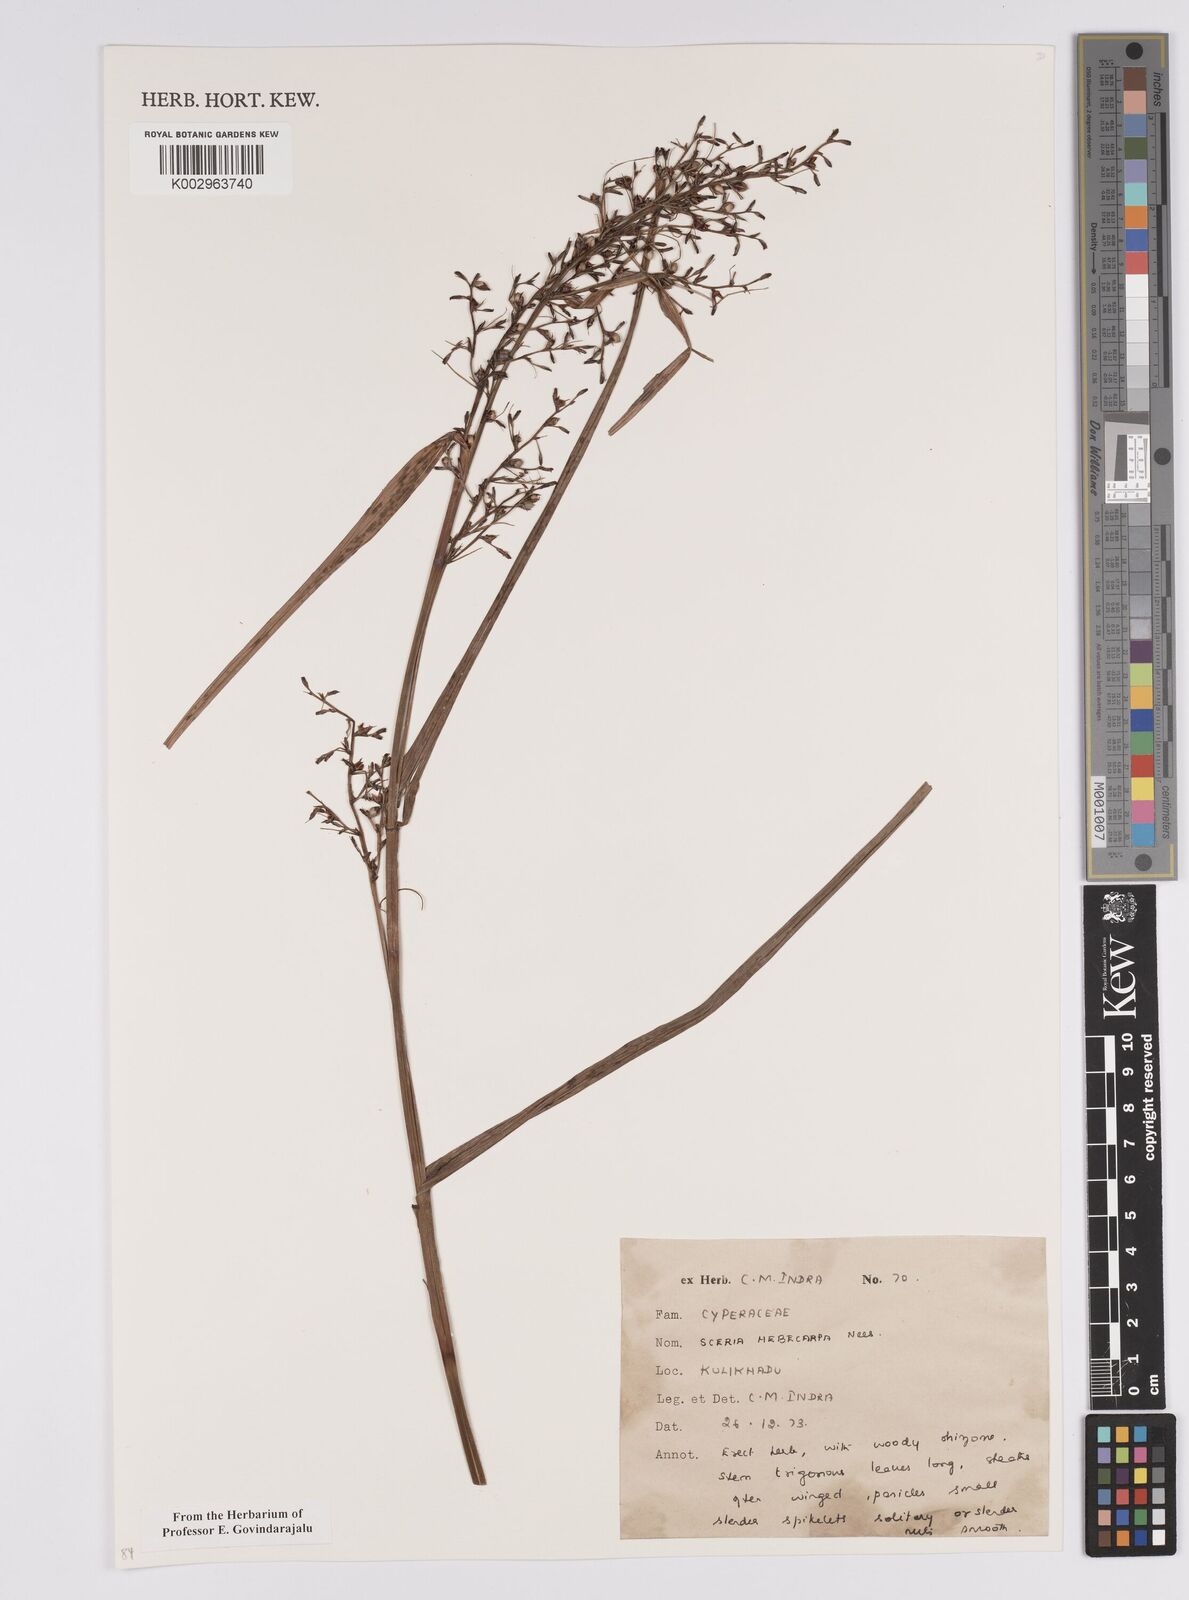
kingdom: Plantae
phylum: Tracheophyta
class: Liliopsida
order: Poales
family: Cyperaceae
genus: Scleria
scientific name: Scleria levis
